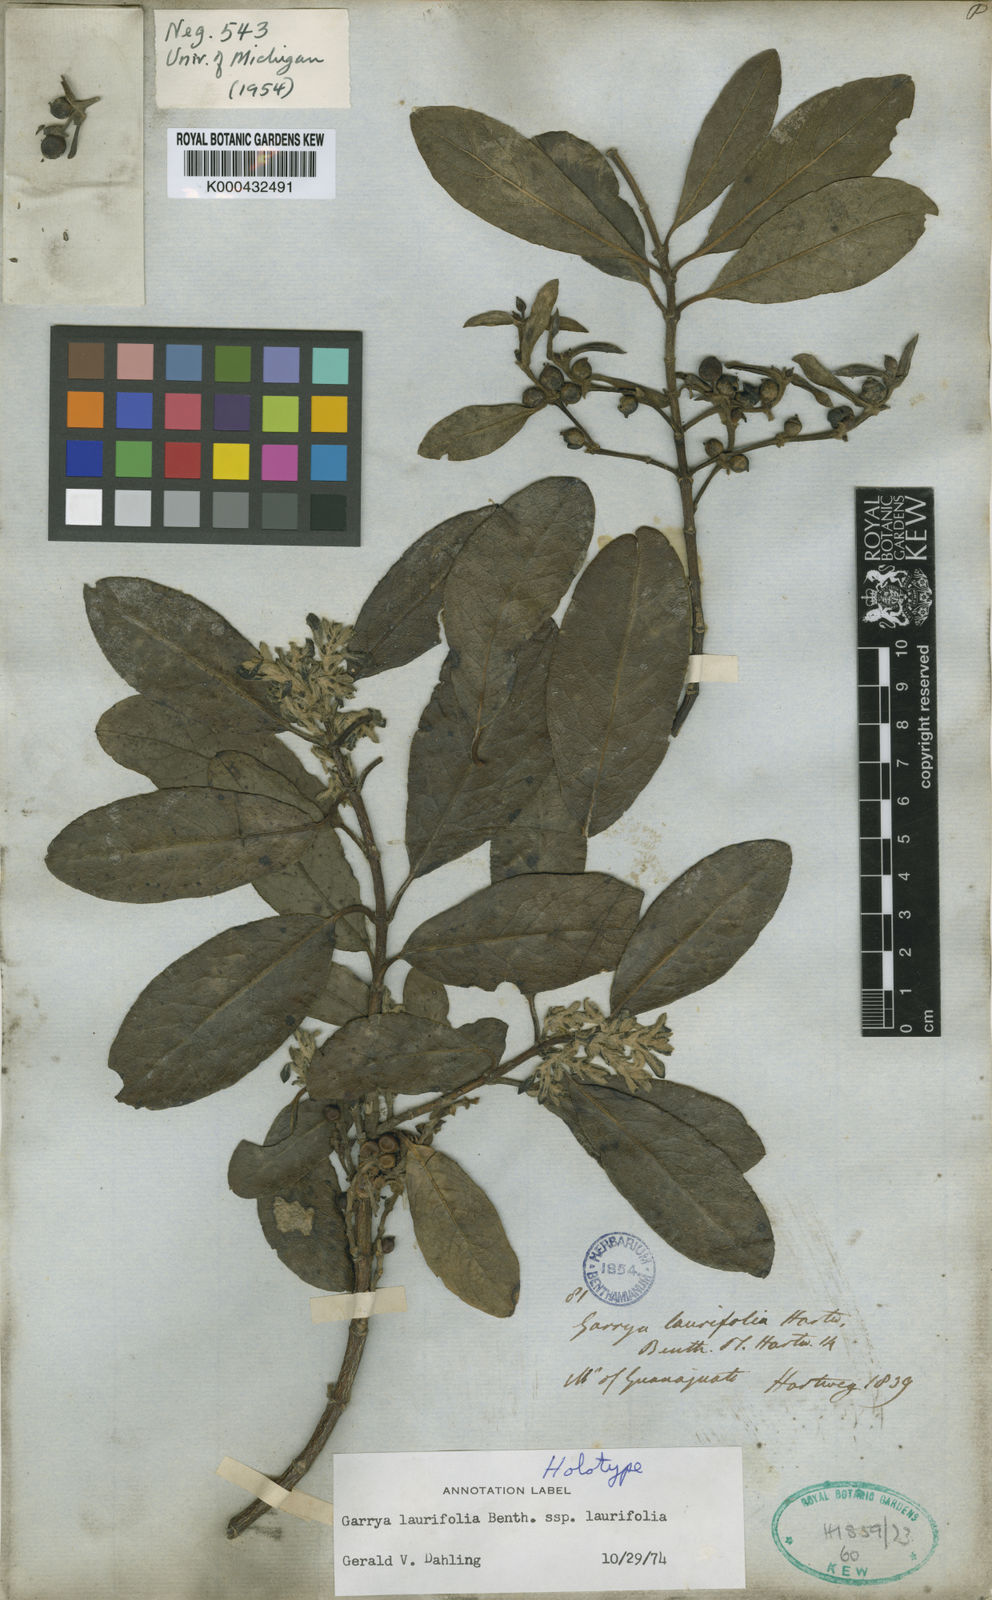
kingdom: Plantae
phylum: Tracheophyta
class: Magnoliopsida
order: Garryales
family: Garryaceae
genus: Garrya
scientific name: Garrya laurifolia
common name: Cuachichic
